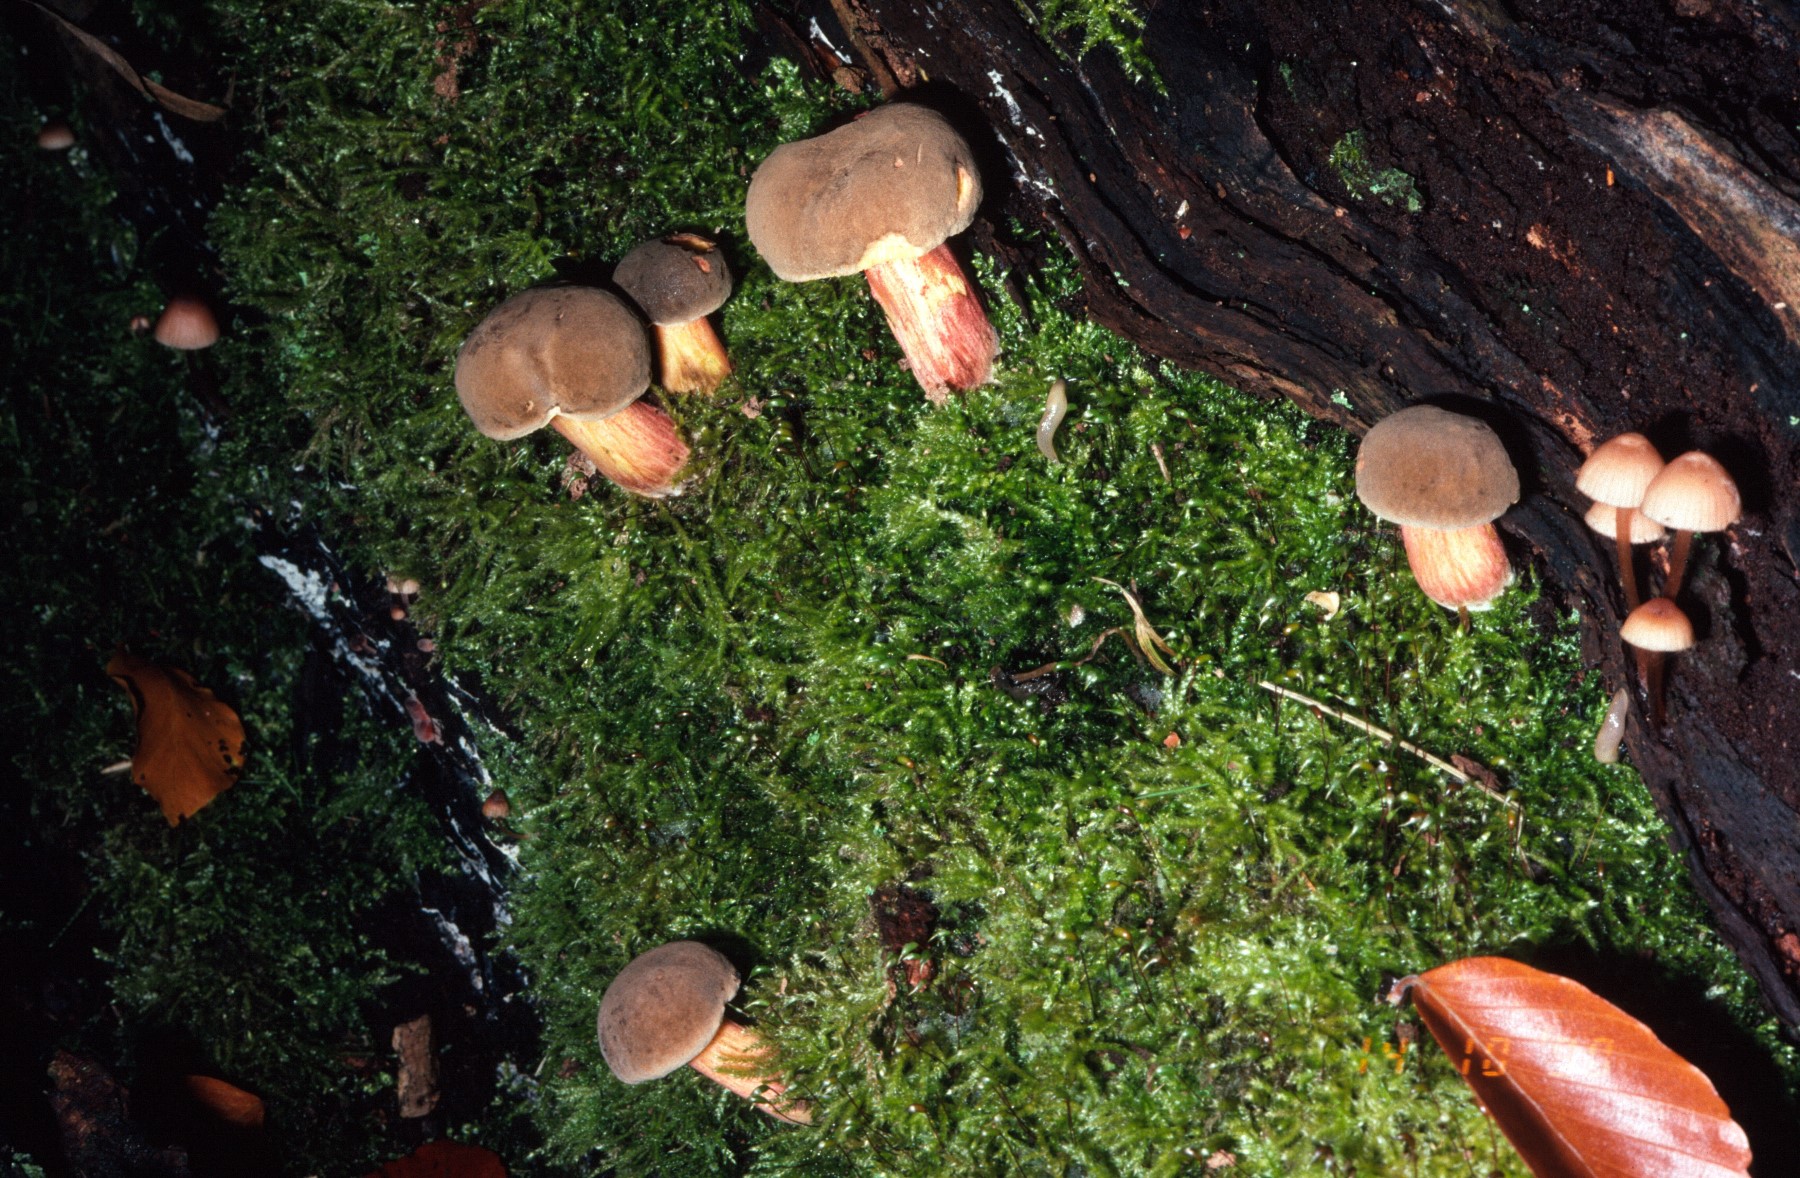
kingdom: Fungi
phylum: Basidiomycota
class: Agaricomycetes
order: Boletales
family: Boletaceae
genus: Xerocomellus
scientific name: Xerocomellus pruinatus
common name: dugget rørhat
